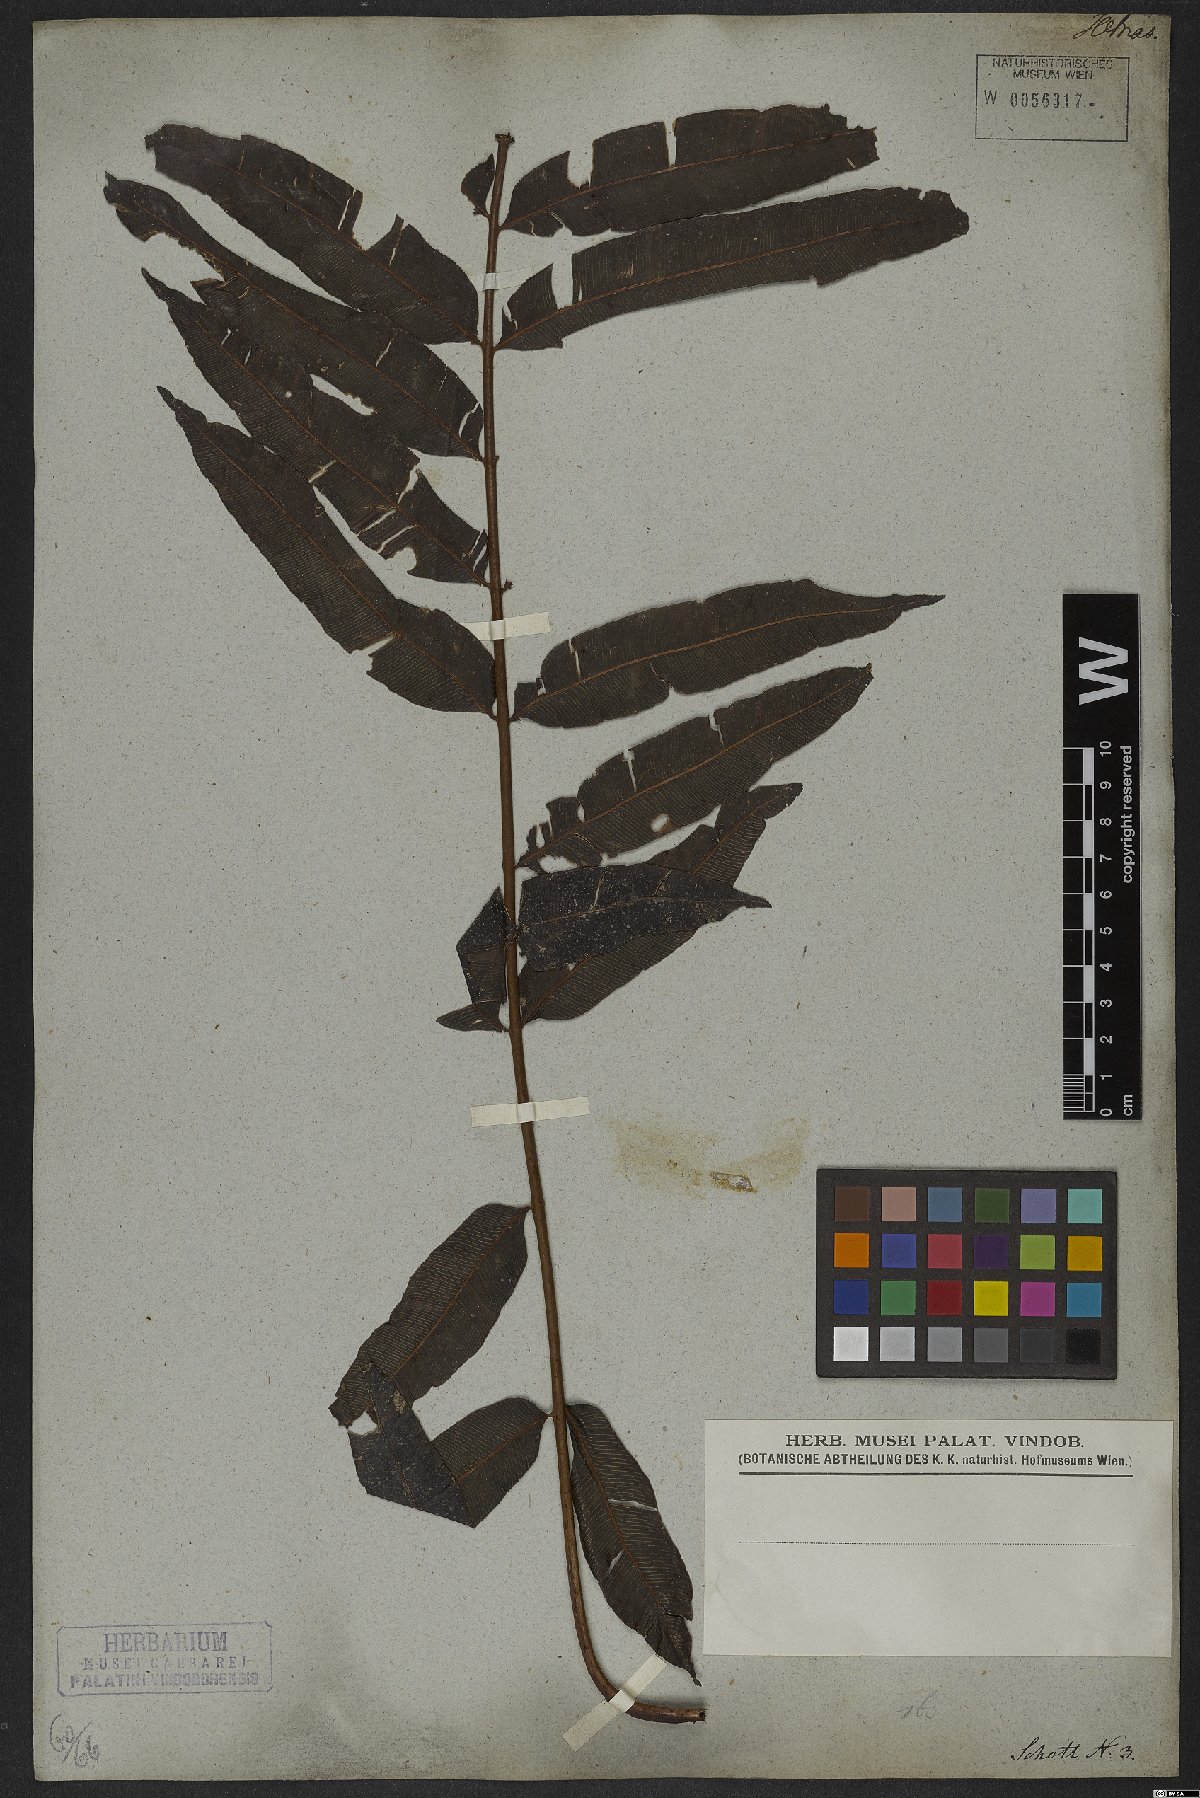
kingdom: Plantae
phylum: Tracheophyta
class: Polypodiopsida
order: Polypodiales
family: Lomariopsidaceae
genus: Lomariopsis
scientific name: Lomariopsis marginata
